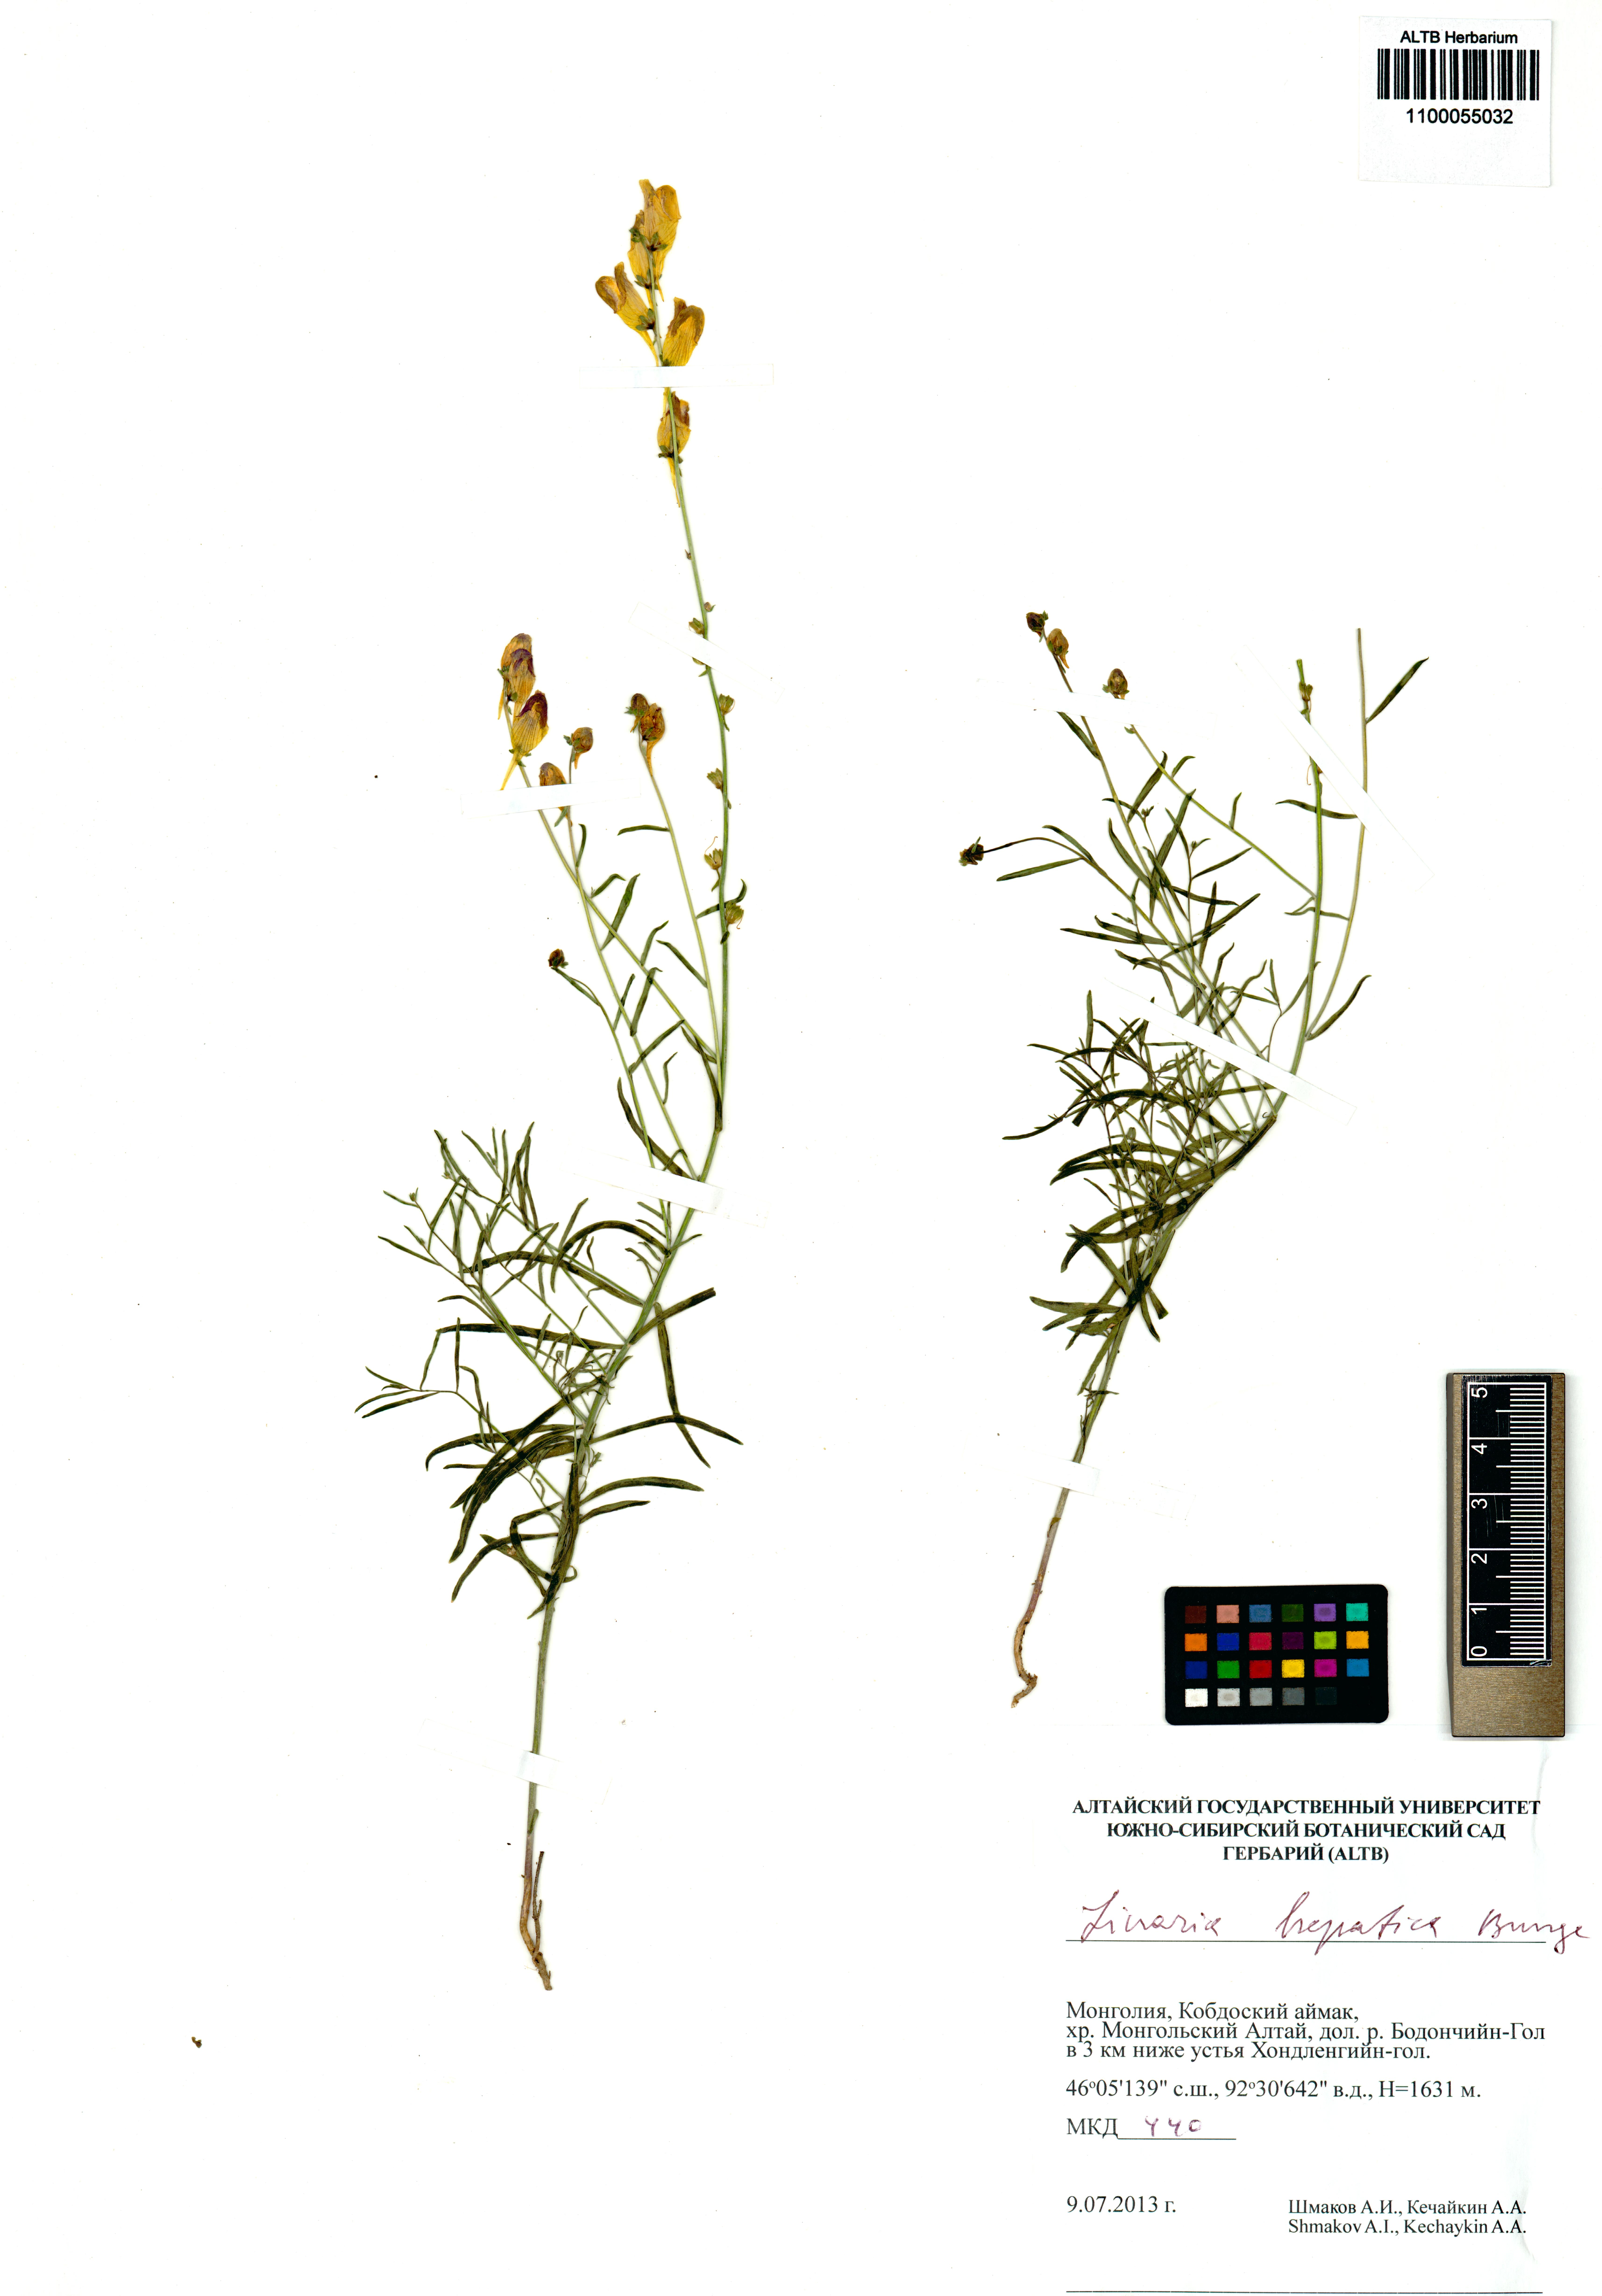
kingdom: Plantae
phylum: Tracheophyta
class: Magnoliopsida
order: Lamiales
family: Plantaginaceae
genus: Linaria
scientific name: Linaria hepatica
